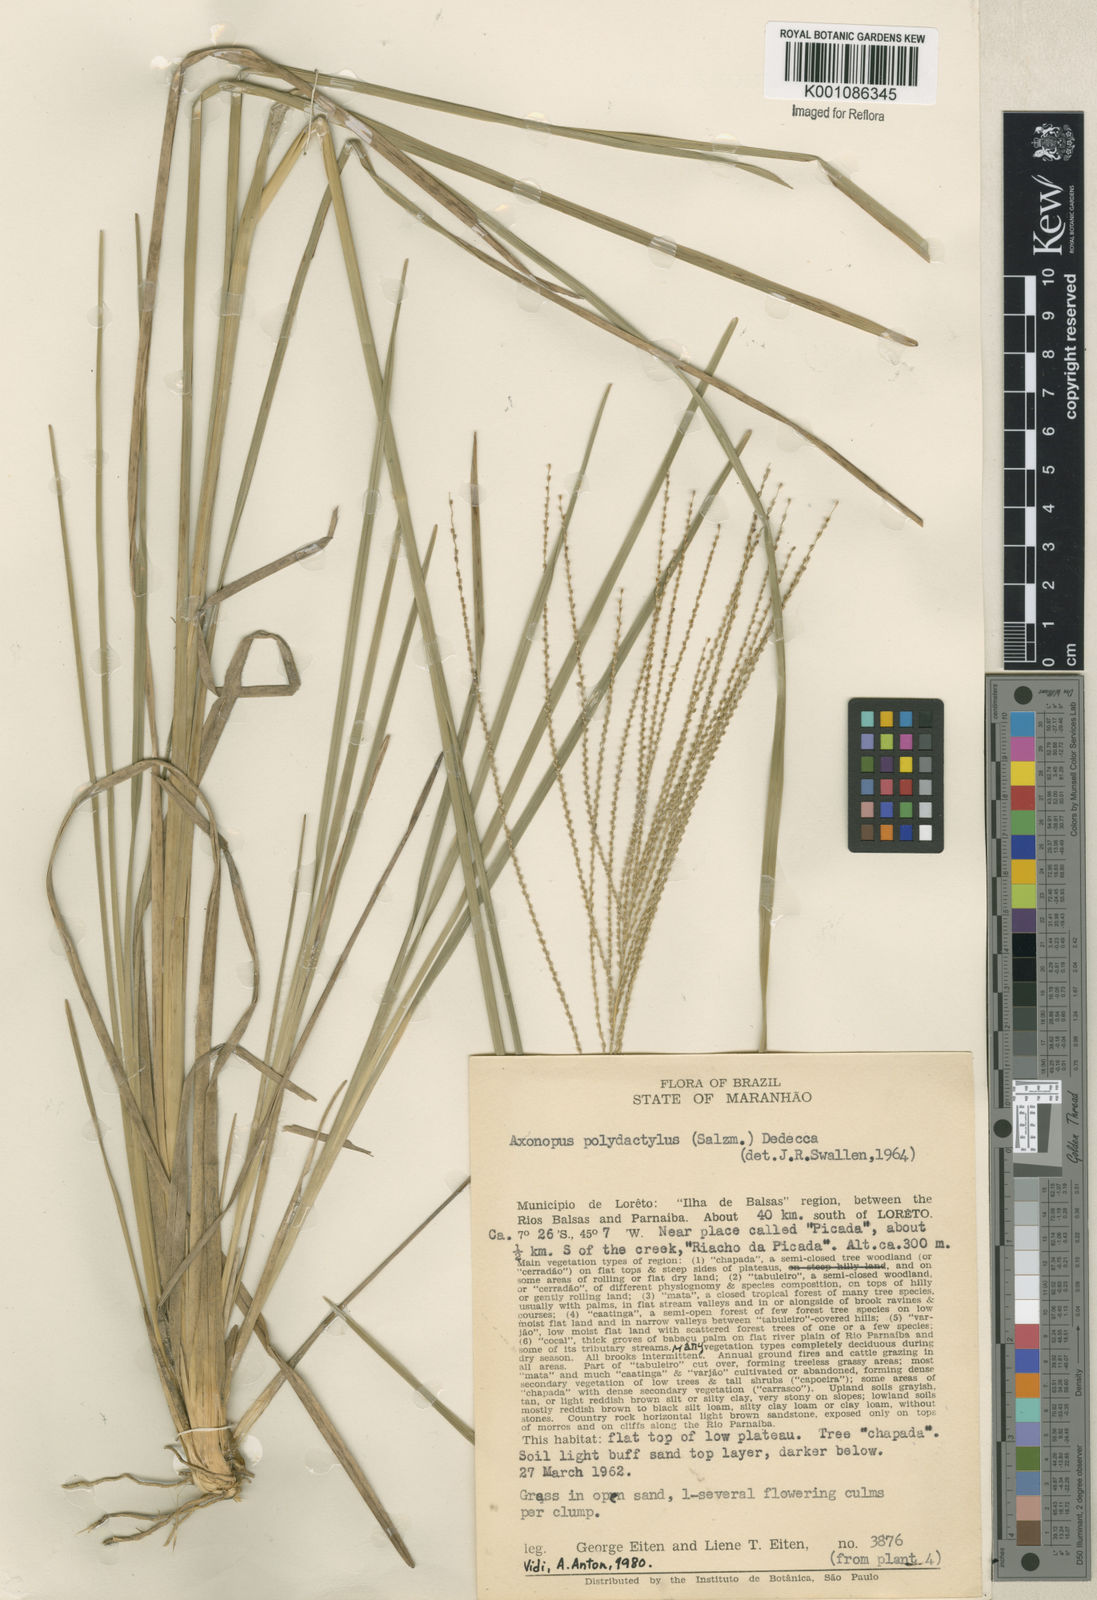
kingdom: Plantae
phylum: Tracheophyta
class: Liliopsida
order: Poales
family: Poaceae
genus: Axonopus
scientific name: Axonopus polydactylus
